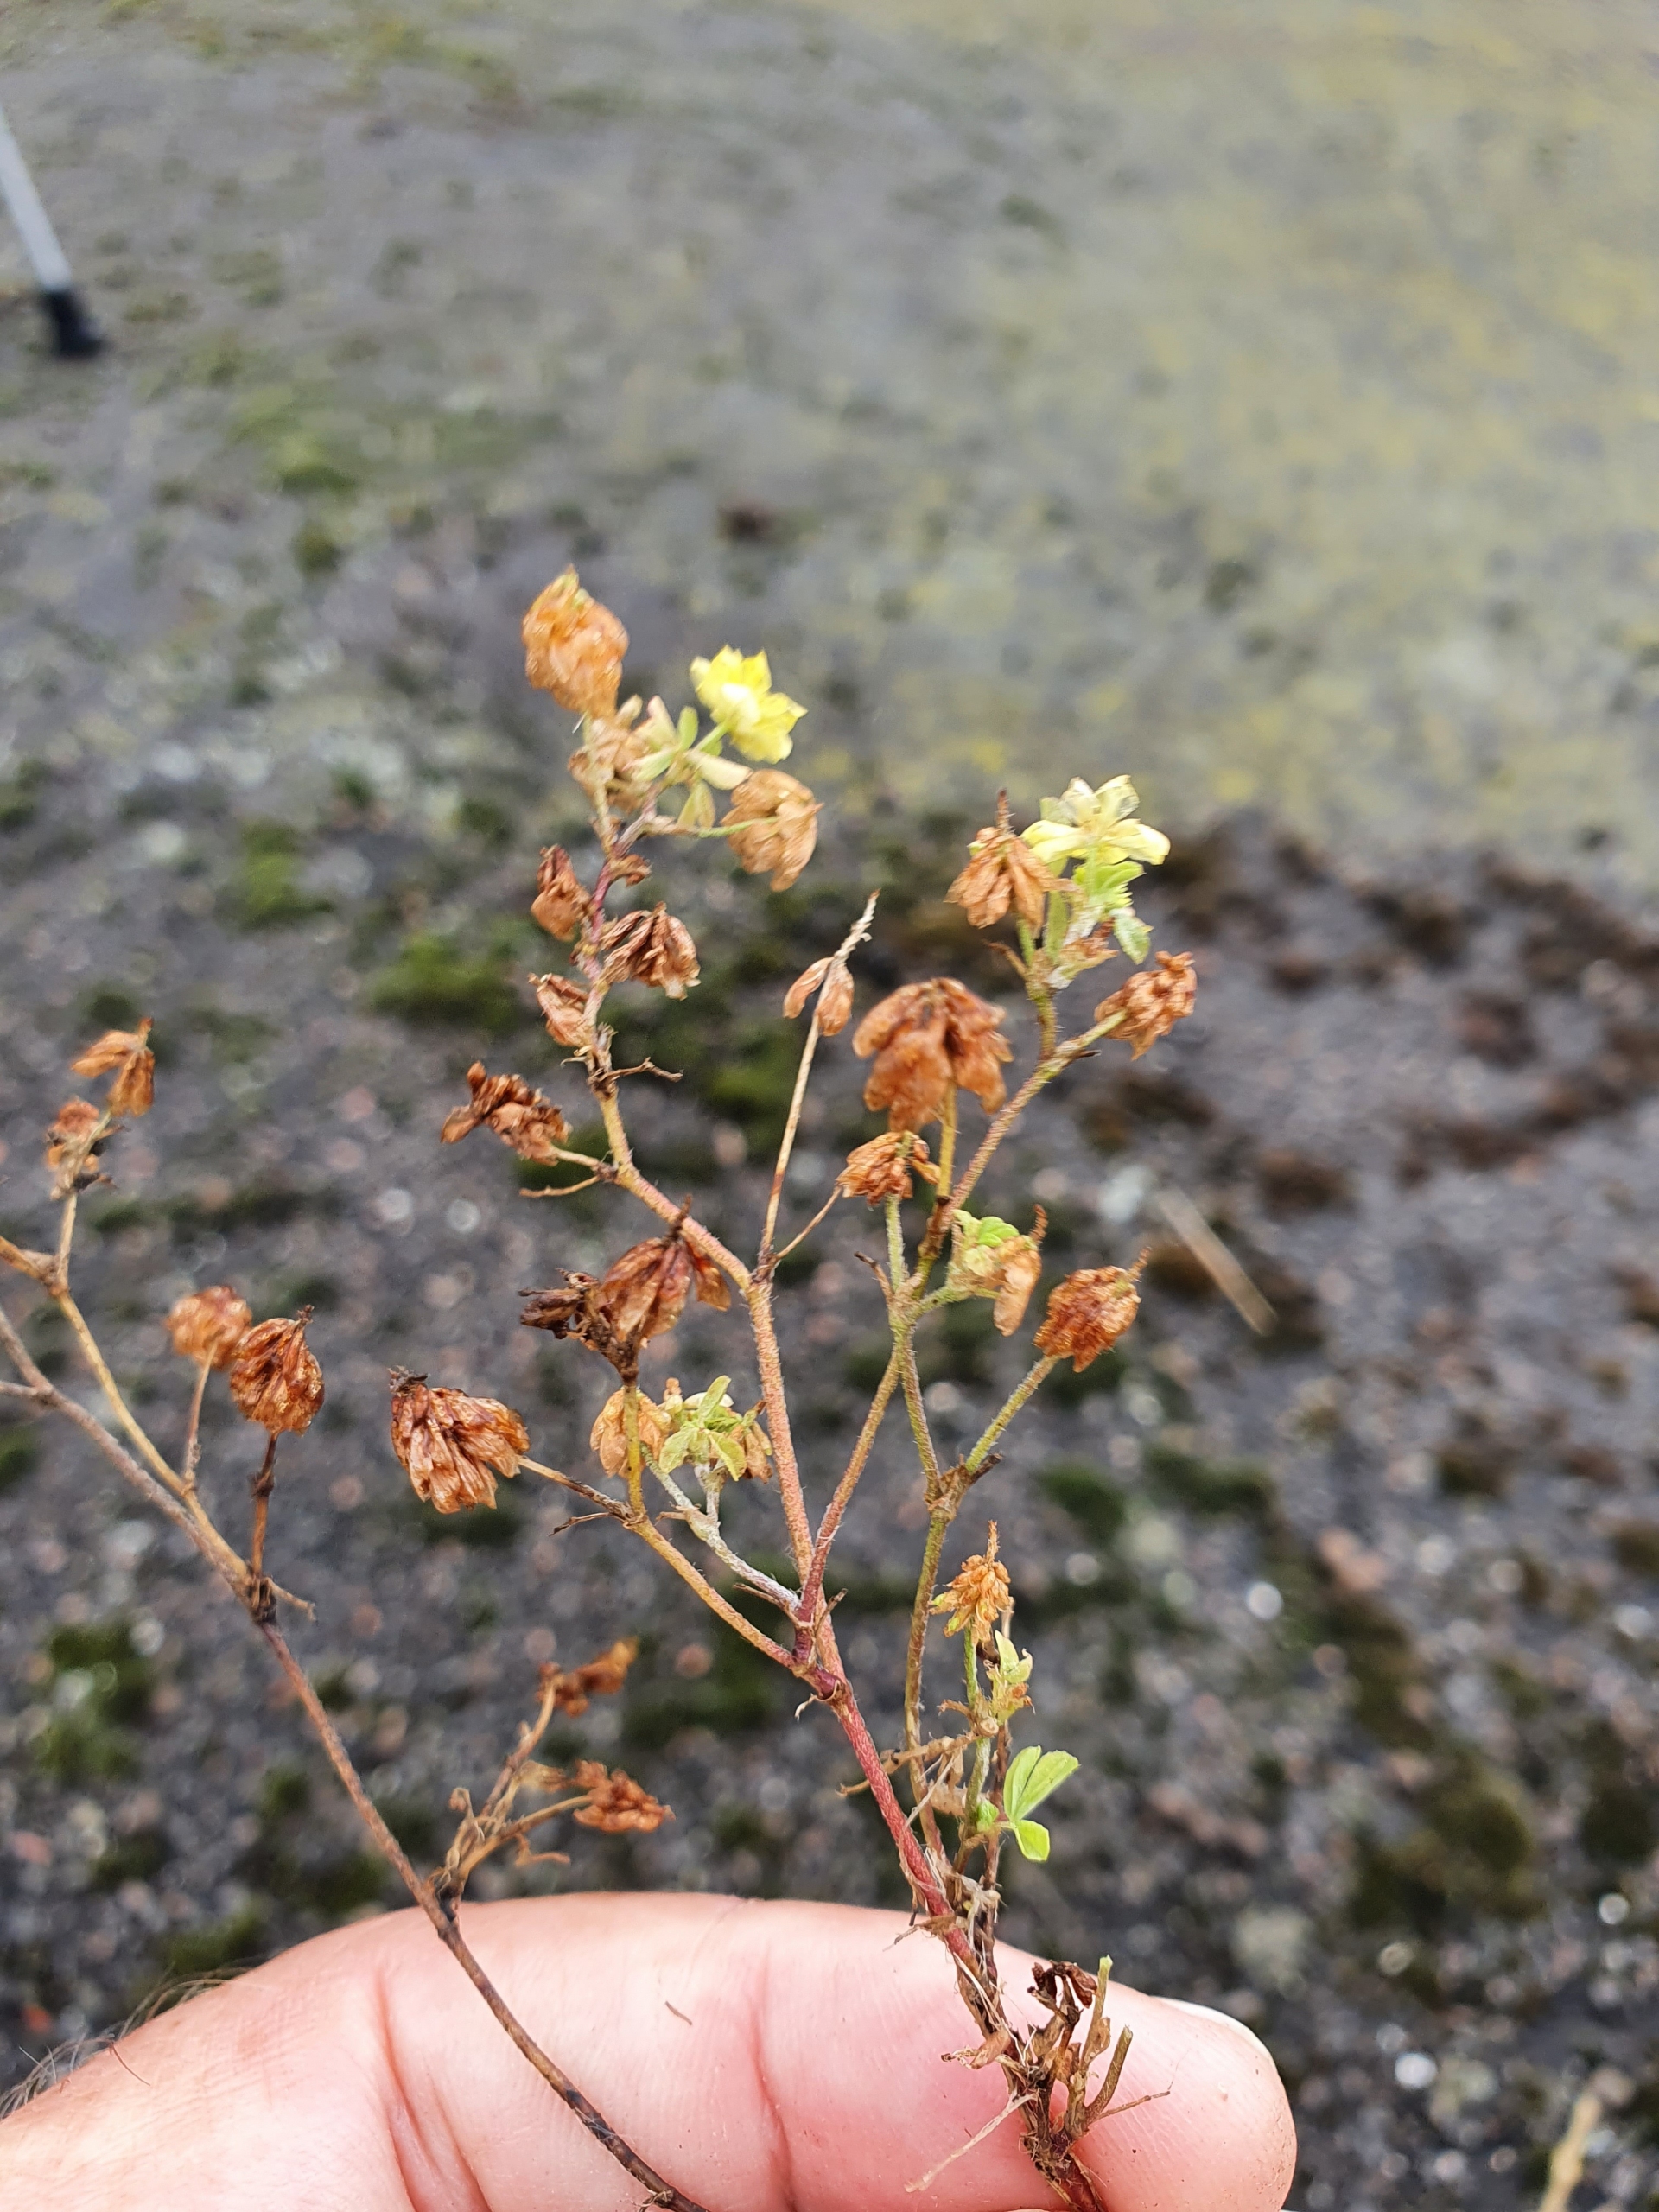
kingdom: Plantae
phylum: Tracheophyta
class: Magnoliopsida
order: Fabales
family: Fabaceae
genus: Trifolium
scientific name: Trifolium dubium
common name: Fin kløver
